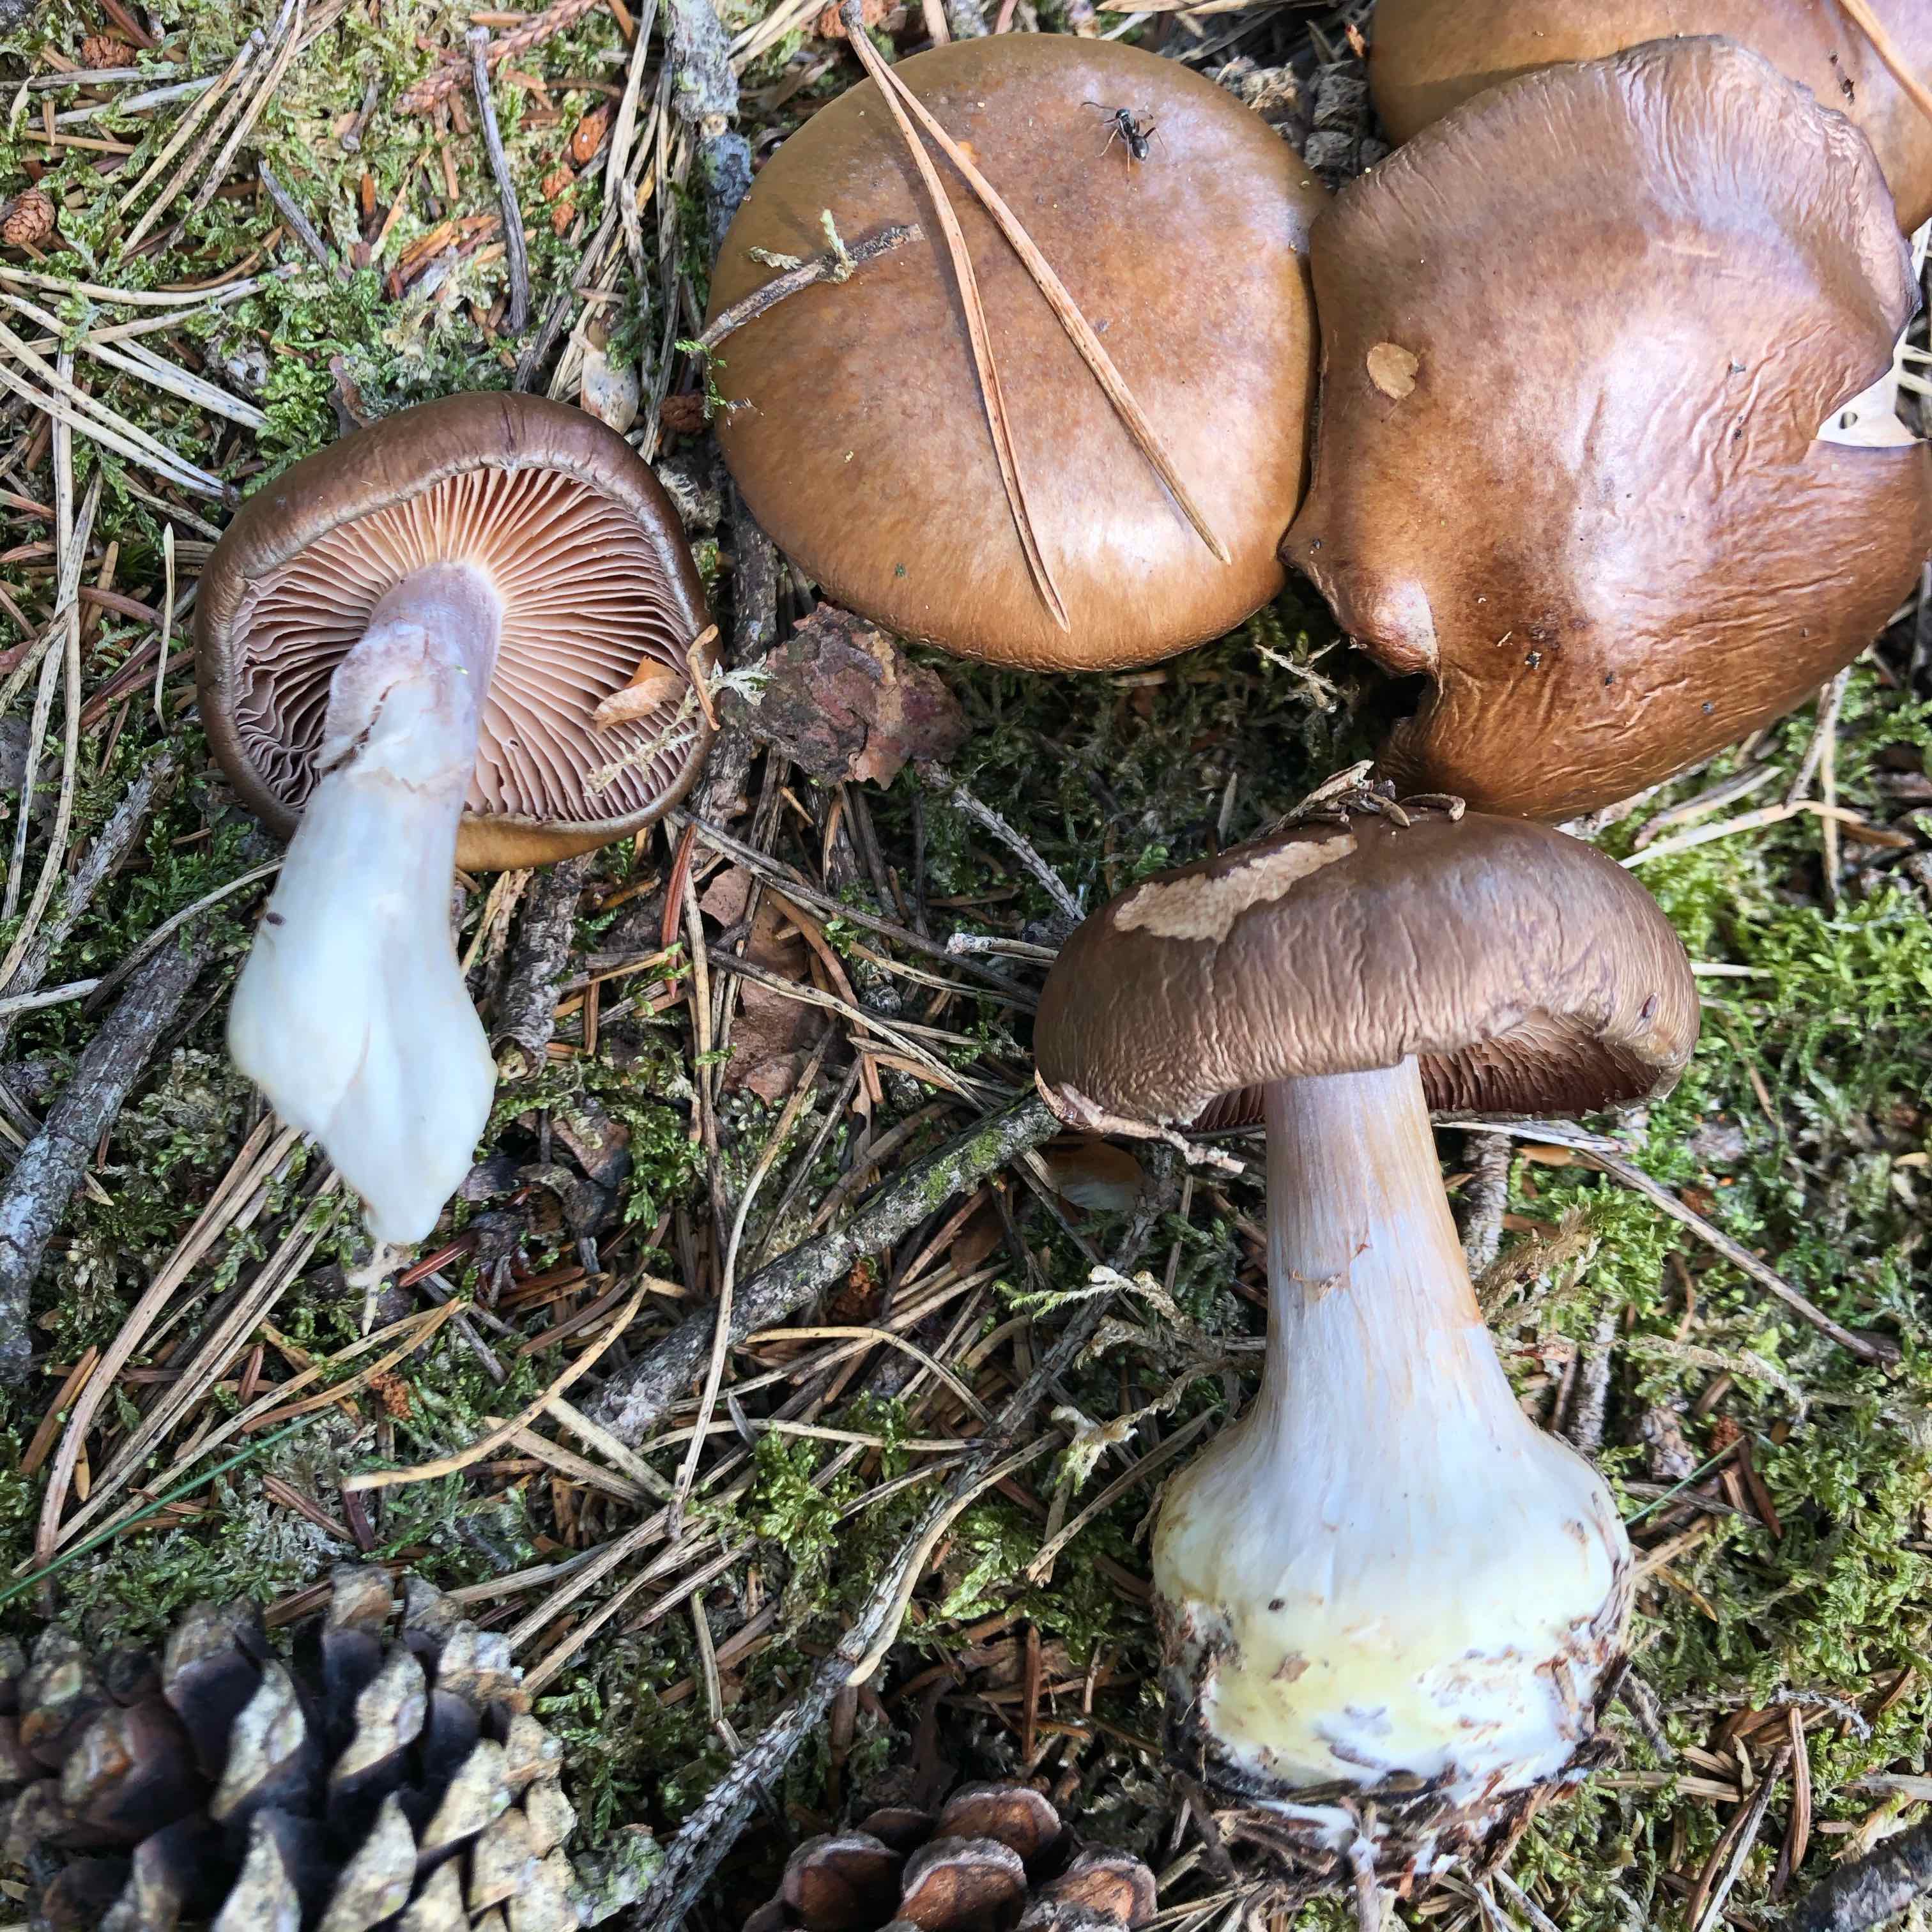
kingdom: Fungi
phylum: Basidiomycota
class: Agaricomycetes
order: Agaricales
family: Cortinariaceae
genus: Cortinarius
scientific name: Cortinarius
